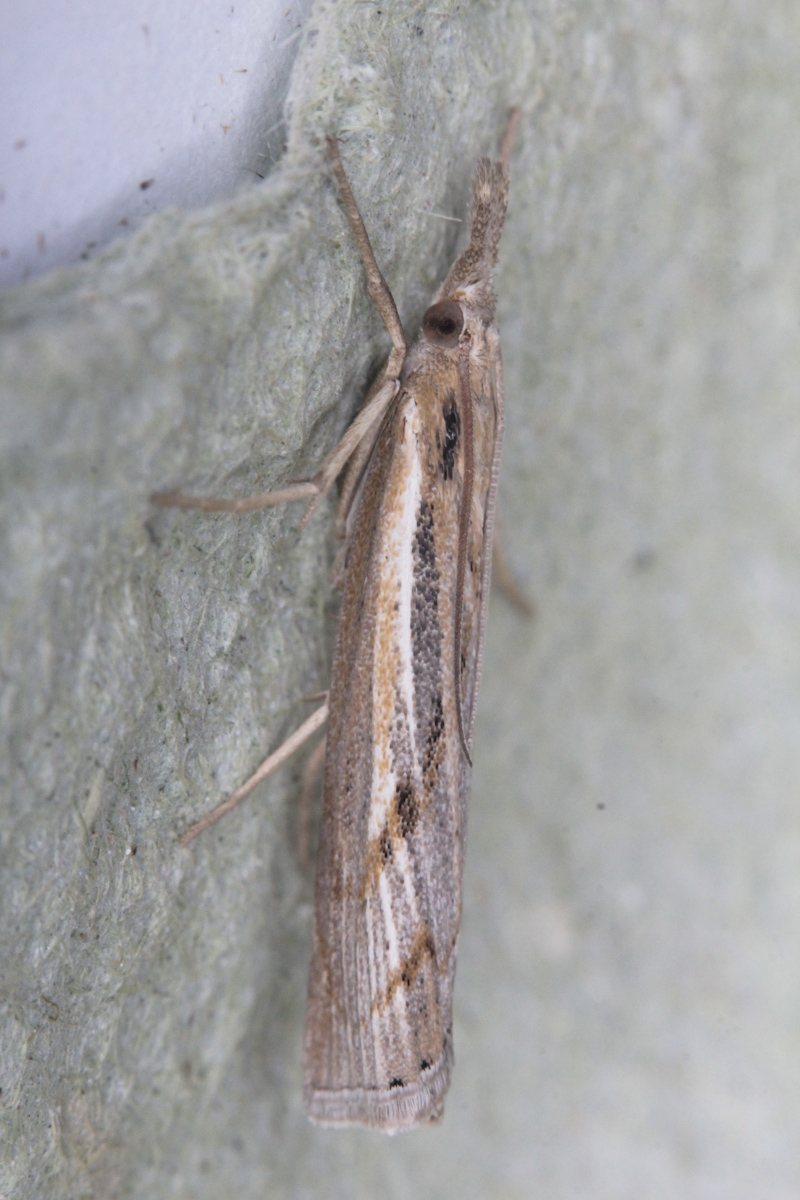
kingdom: Animalia
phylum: Arthropoda
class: Insecta
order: Lepidoptera
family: Crambidae
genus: Pediasia
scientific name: Pediasia aridella
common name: Salt-marsh grass-veneer
